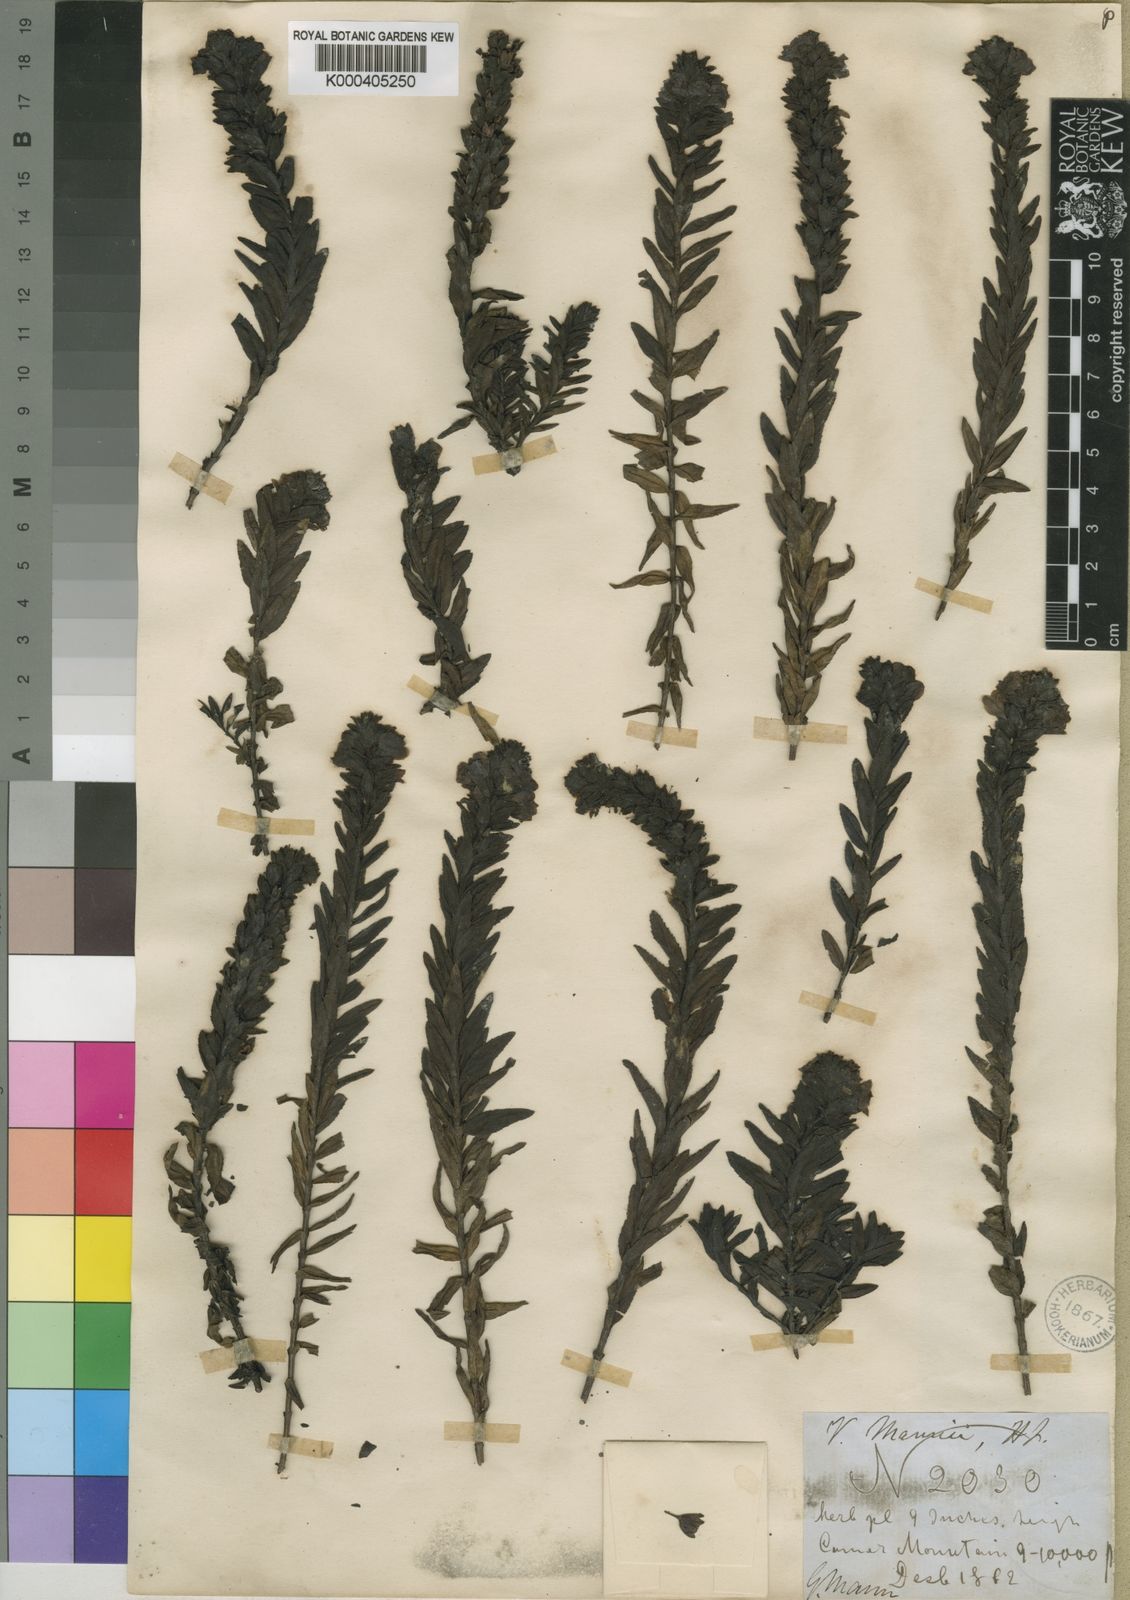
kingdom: Plantae
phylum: Tracheophyta
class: Magnoliopsida
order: Lamiales
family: Plantaginaceae
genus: Veronica
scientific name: Veronica mannii
